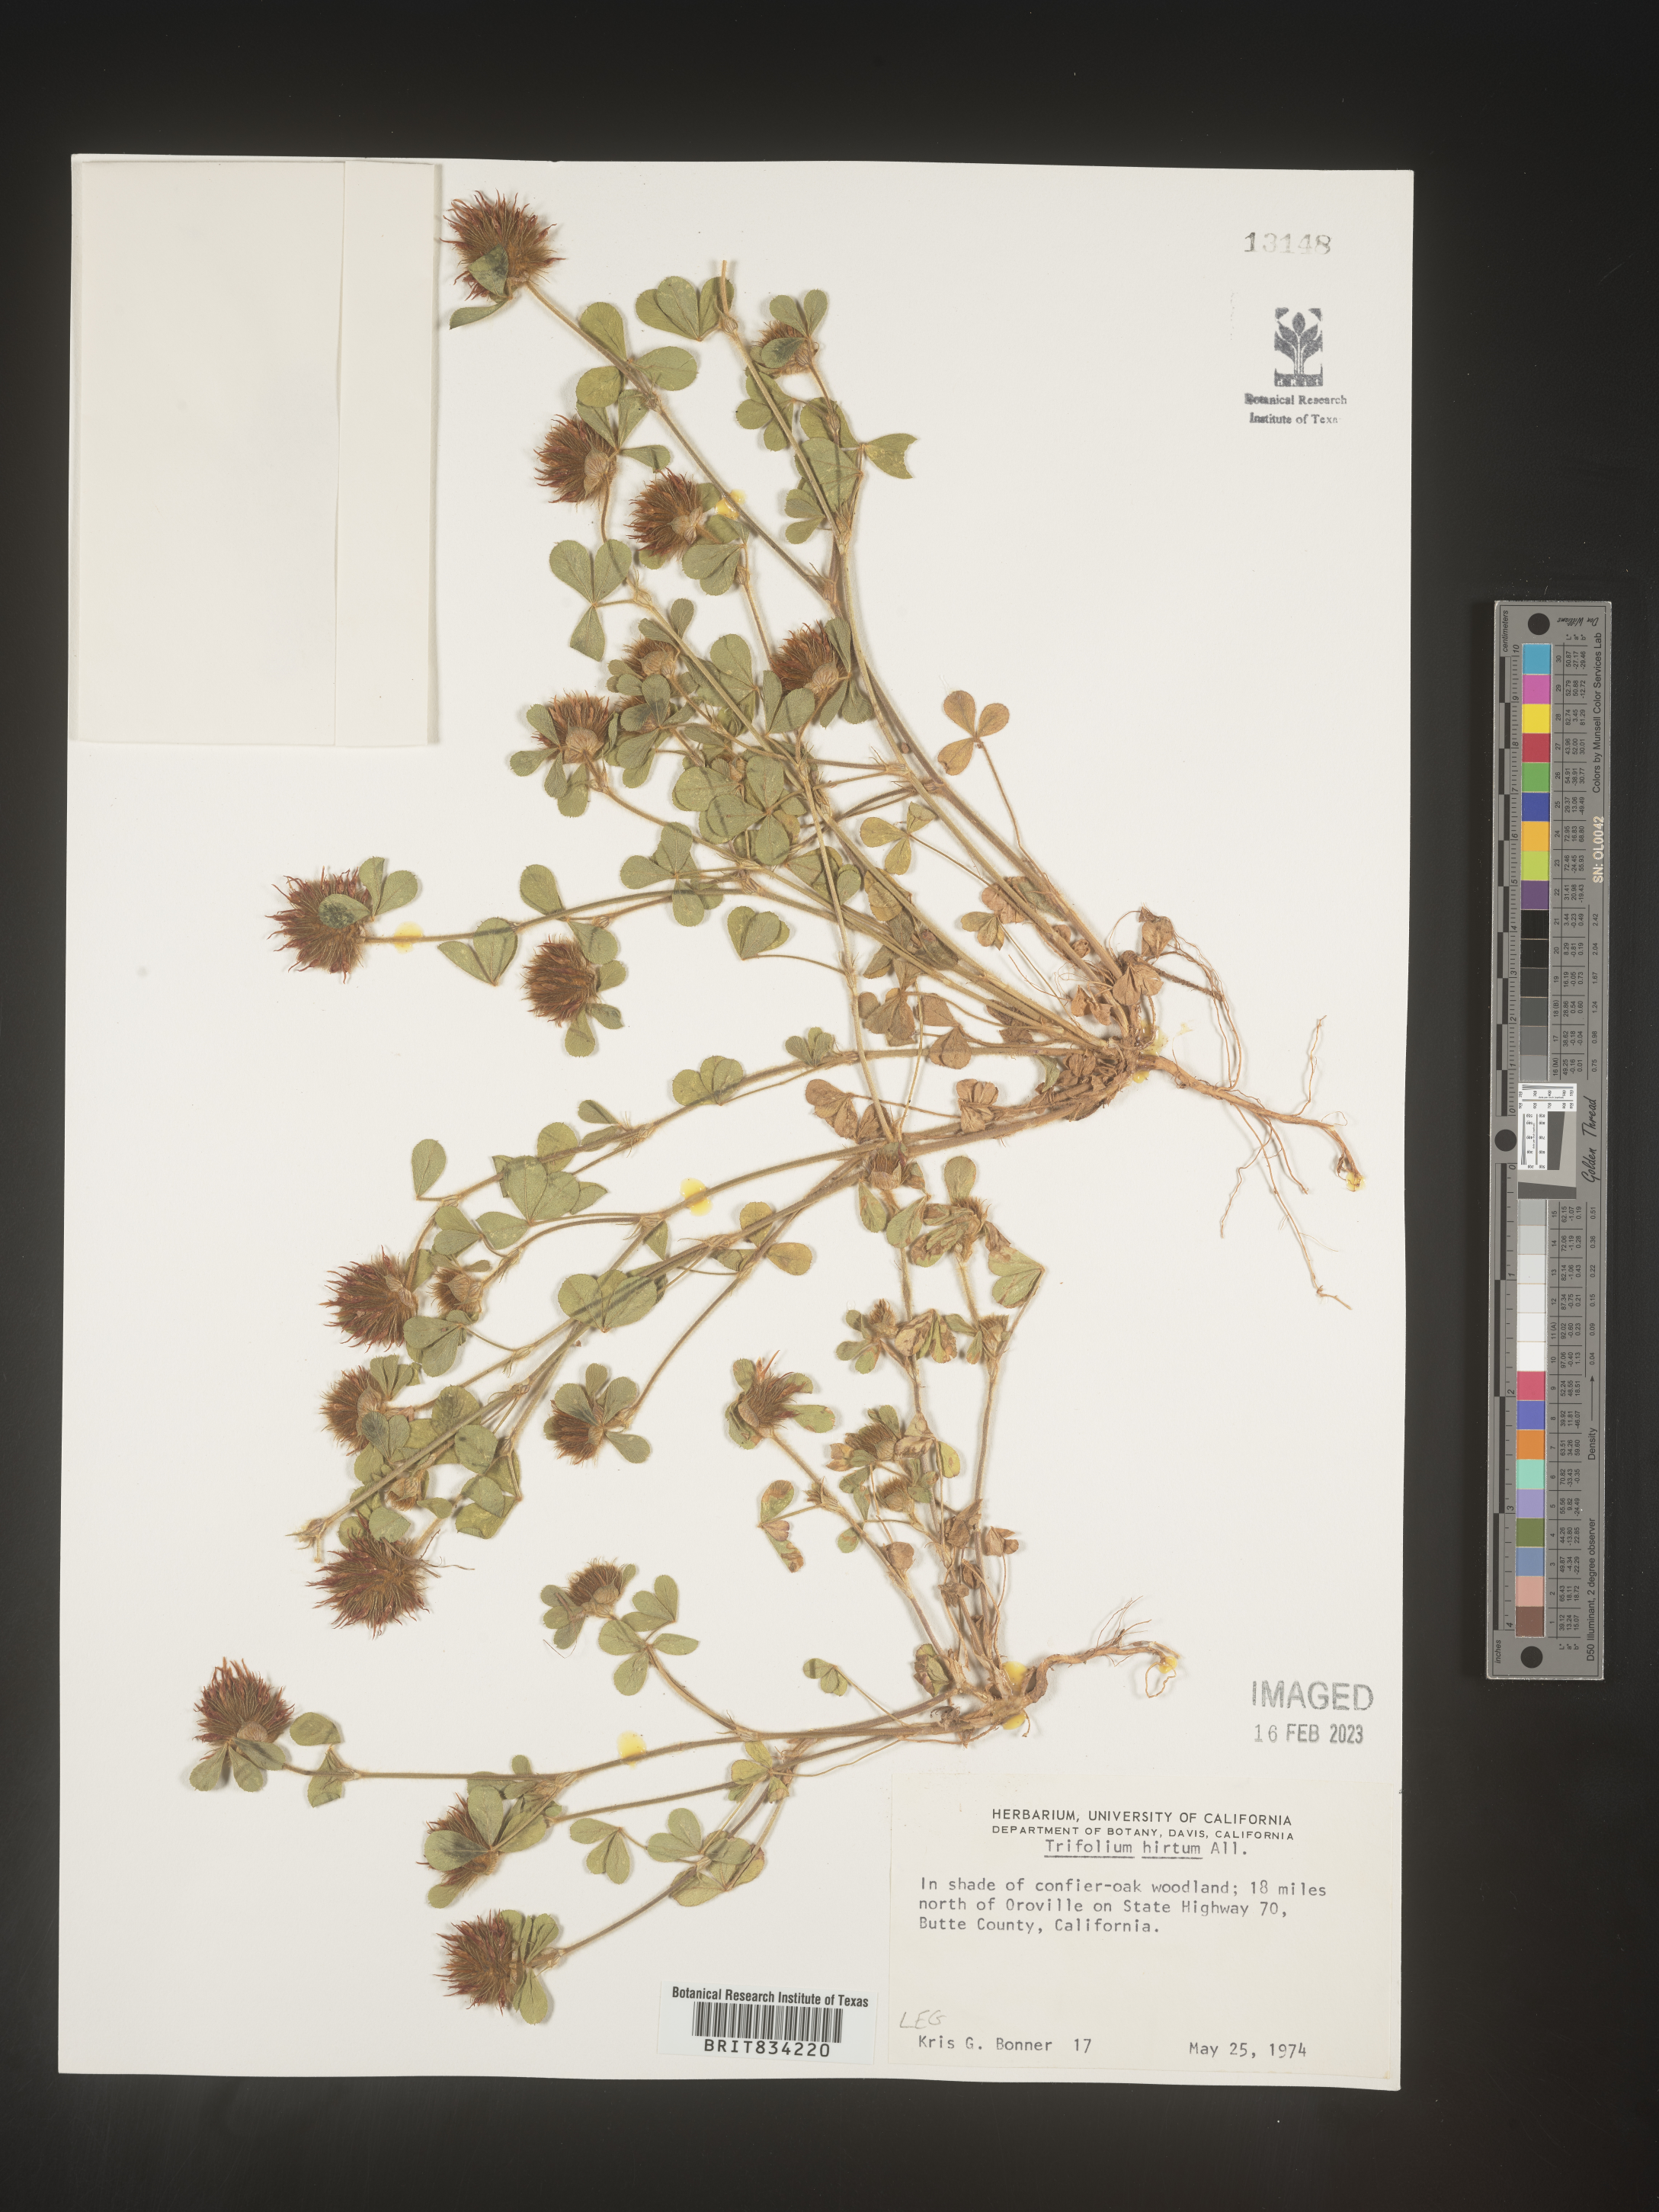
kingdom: Plantae
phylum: Tracheophyta
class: Magnoliopsida
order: Fabales
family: Fabaceae
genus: Trifolium
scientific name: Trifolium
